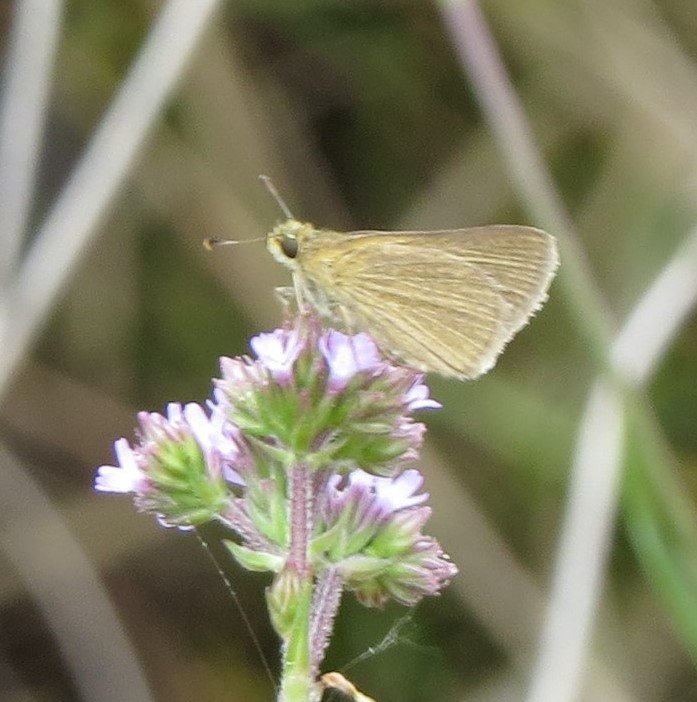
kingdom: Animalia
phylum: Arthropoda
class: Insecta
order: Lepidoptera
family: Hesperiidae
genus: Nastra
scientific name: Nastra lherminier
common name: Swarthy Skipper
